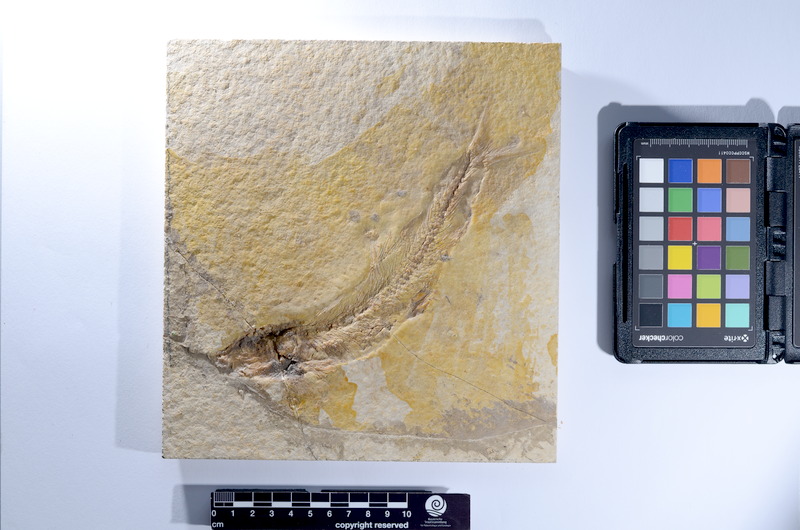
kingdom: Animalia
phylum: Chordata
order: Elopiformes
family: Anaethalionidae
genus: Anaethalion
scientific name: Anaethalion knorri
